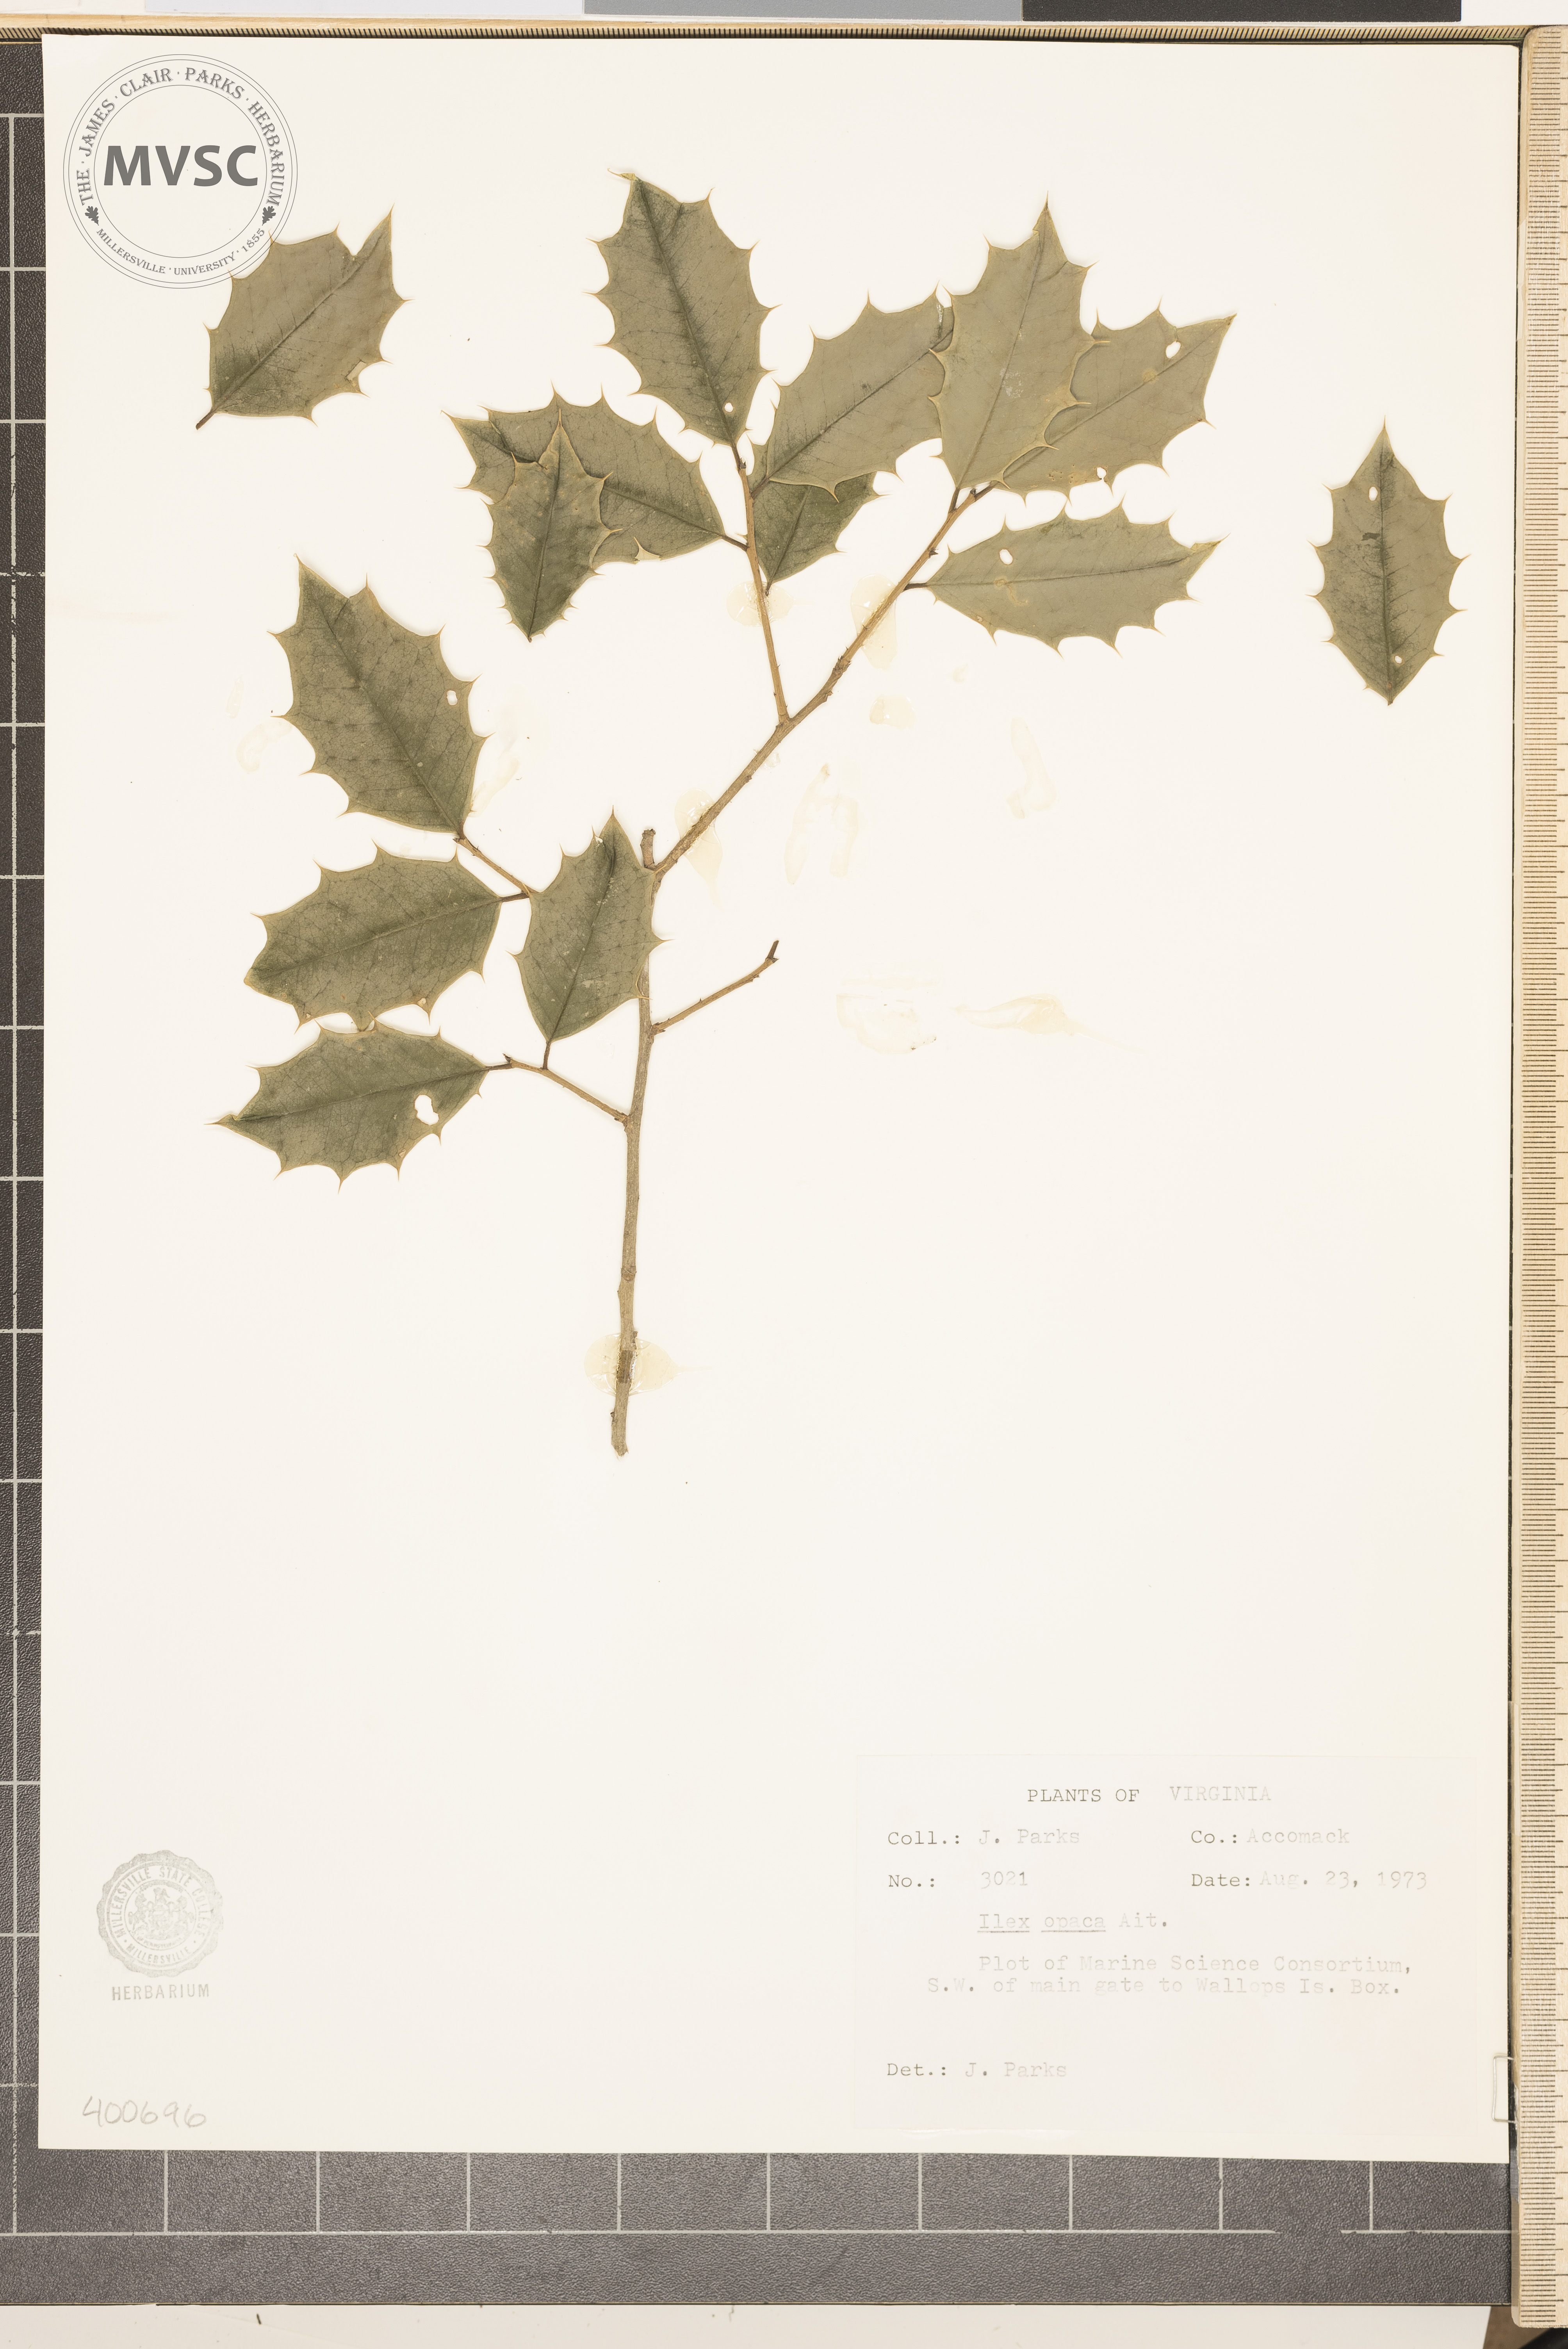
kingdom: Plantae
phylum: Tracheophyta
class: Magnoliopsida
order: Aquifoliales
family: Aquifoliaceae
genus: Ilex
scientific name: Ilex opaca
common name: American holly
